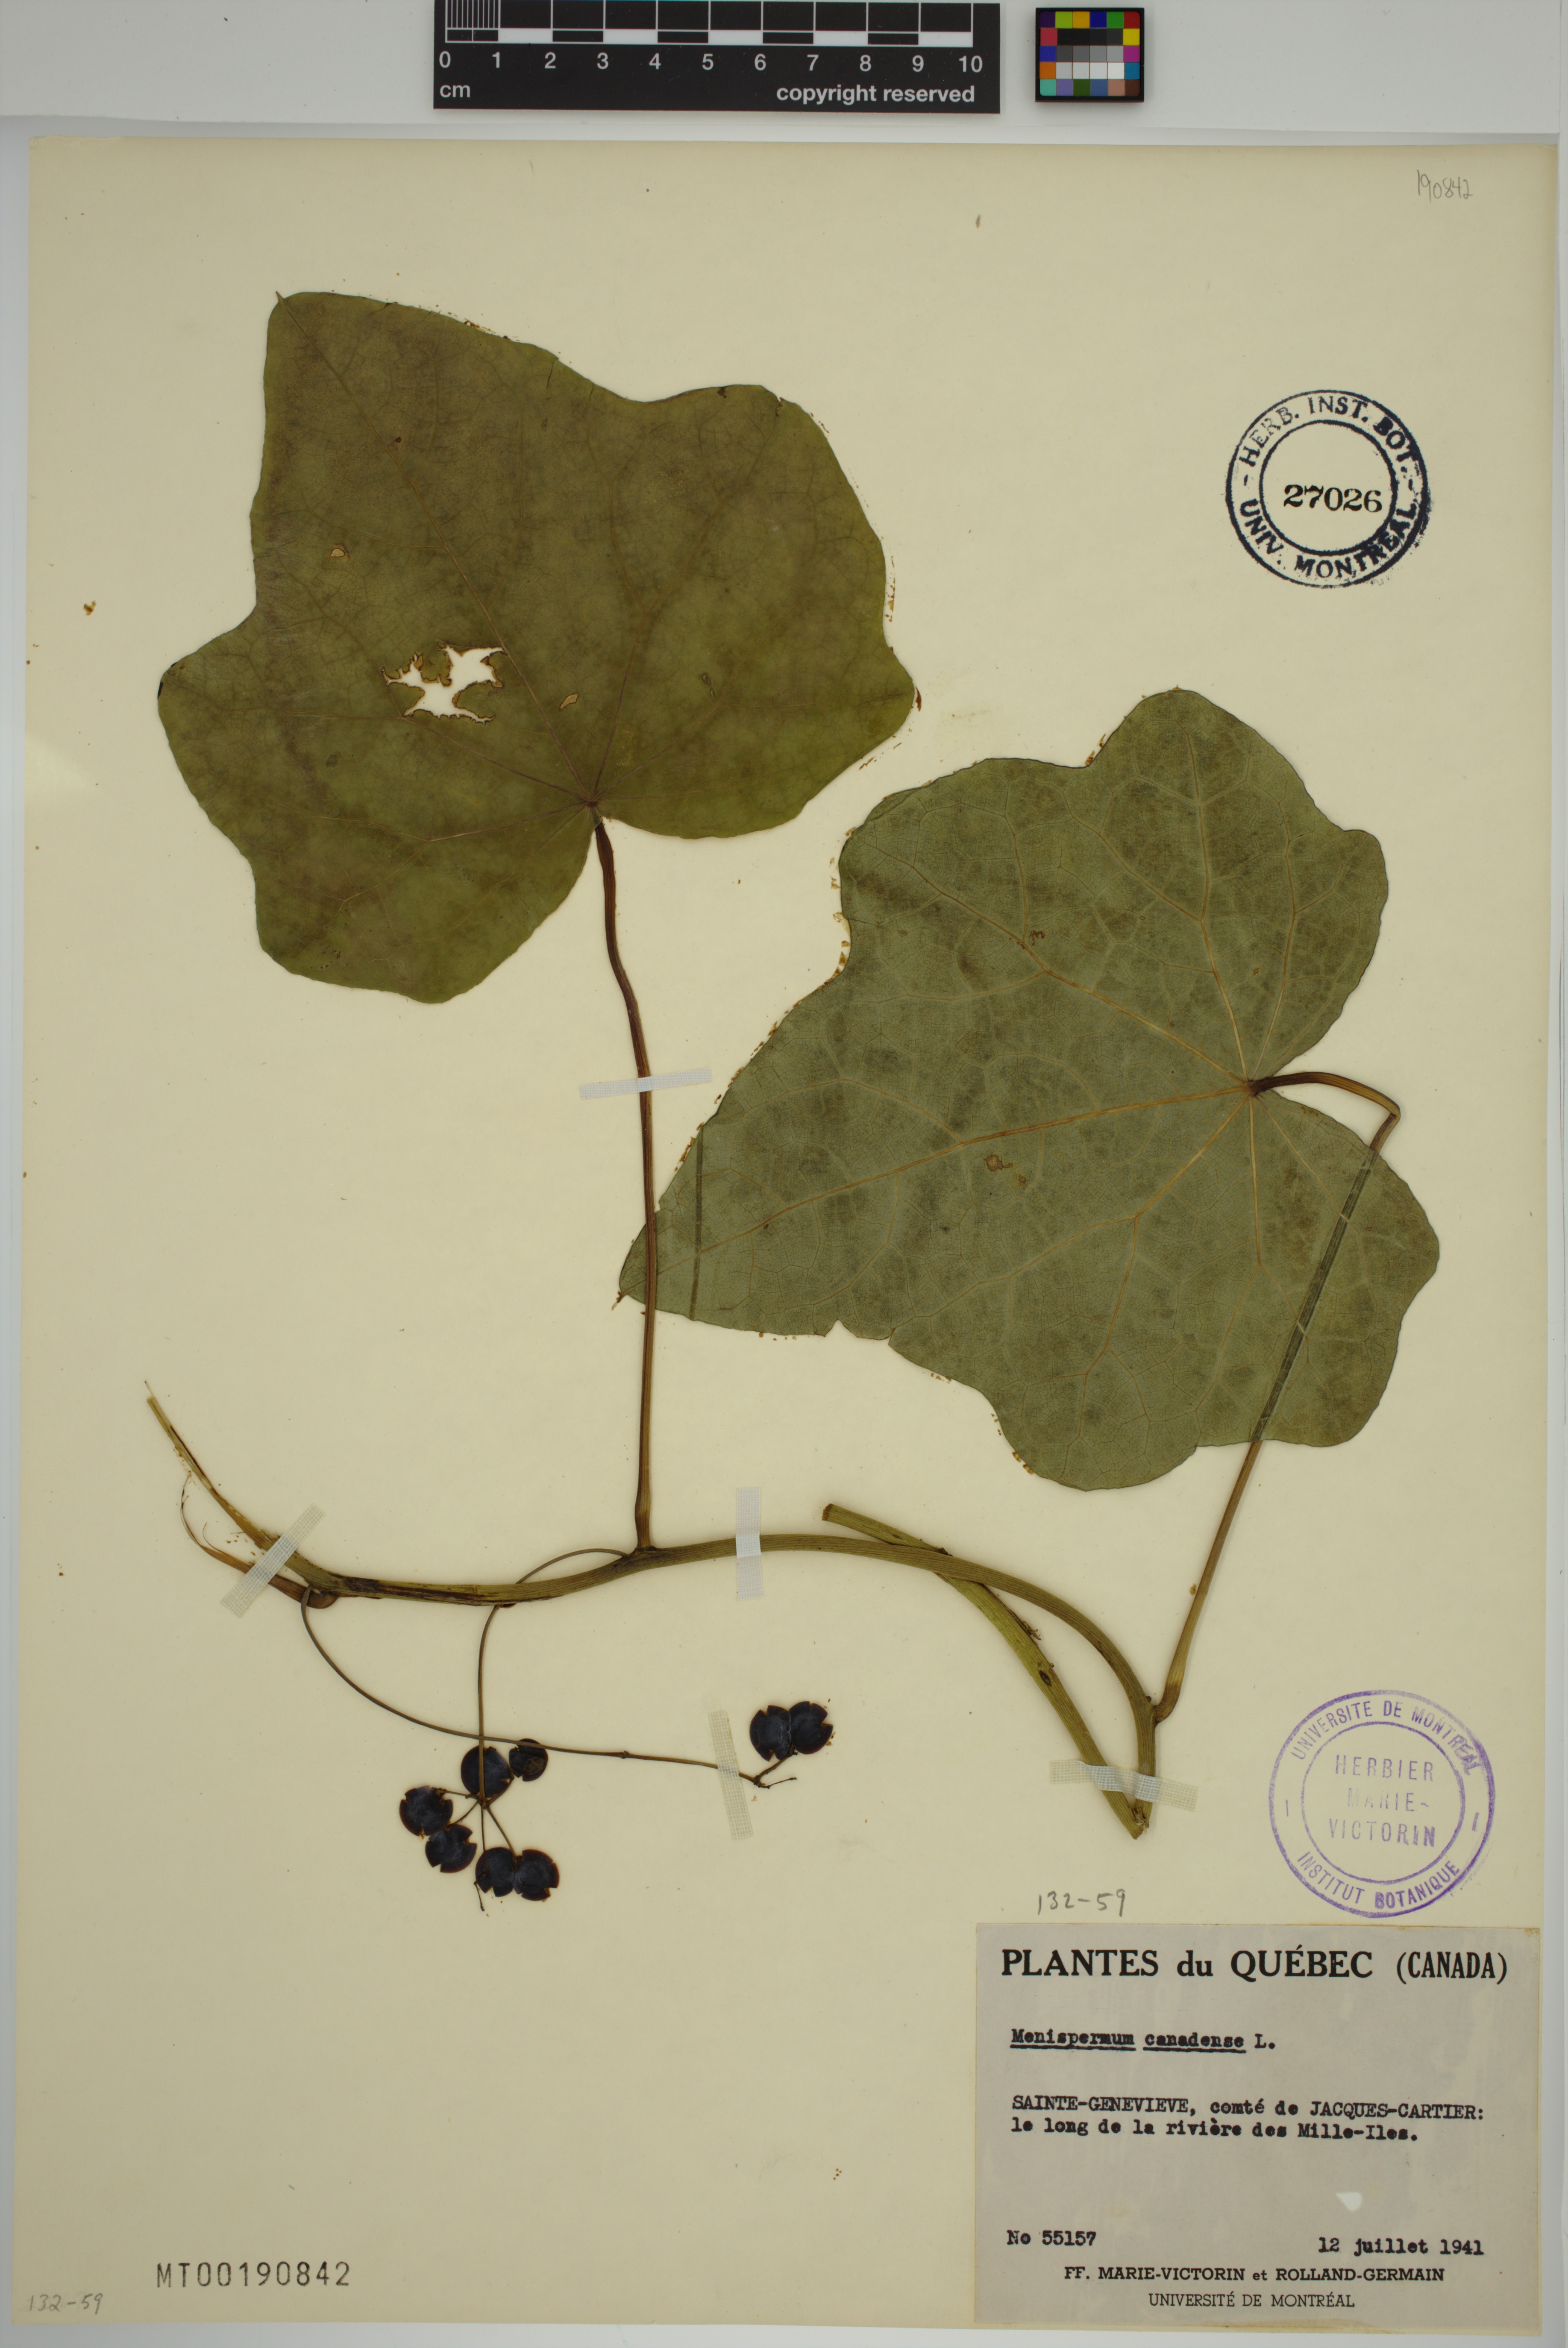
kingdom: Plantae
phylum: Tracheophyta
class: Magnoliopsida
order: Ranunculales
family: Menispermaceae
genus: Menispermum
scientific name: Menispermum canadense
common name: Moonseed
